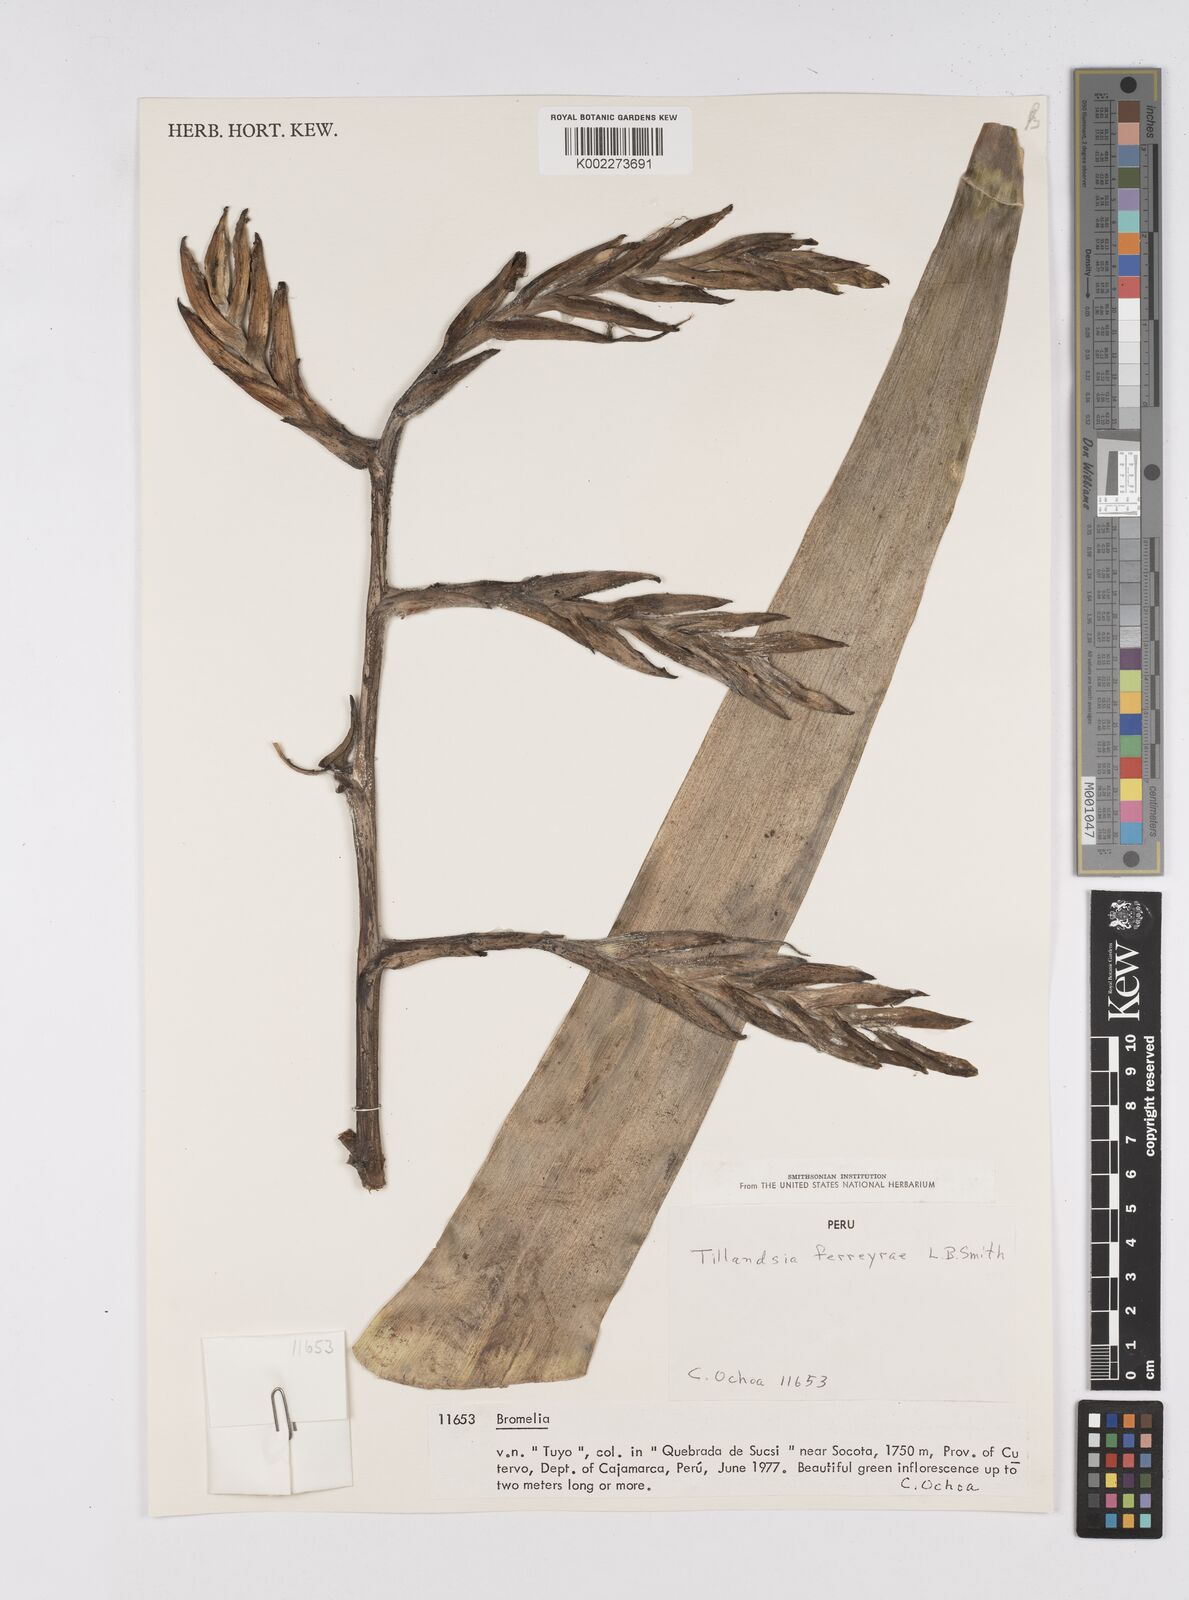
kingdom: Plantae
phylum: Tracheophyta
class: Liliopsida
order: Poales
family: Bromeliaceae
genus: Tillandsia
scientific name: Tillandsia ferreyrae
